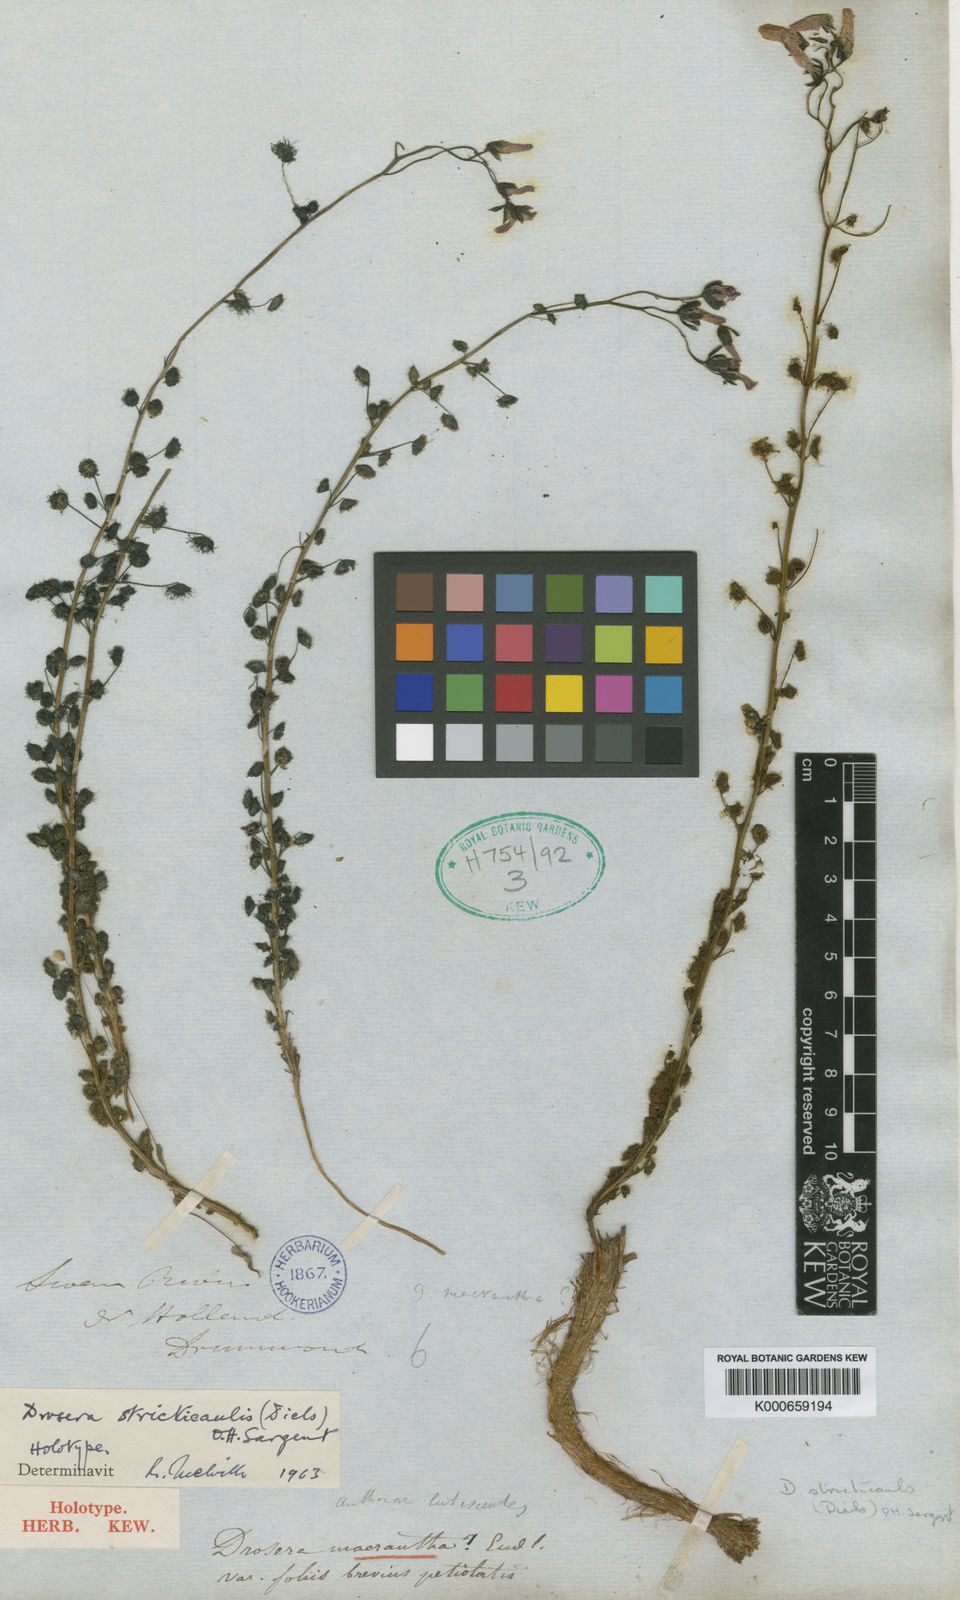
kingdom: Plantae
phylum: Tracheophyta
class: Magnoliopsida
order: Caryophyllales
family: Droseraceae
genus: Drosera
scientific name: Drosera stricticaulis
